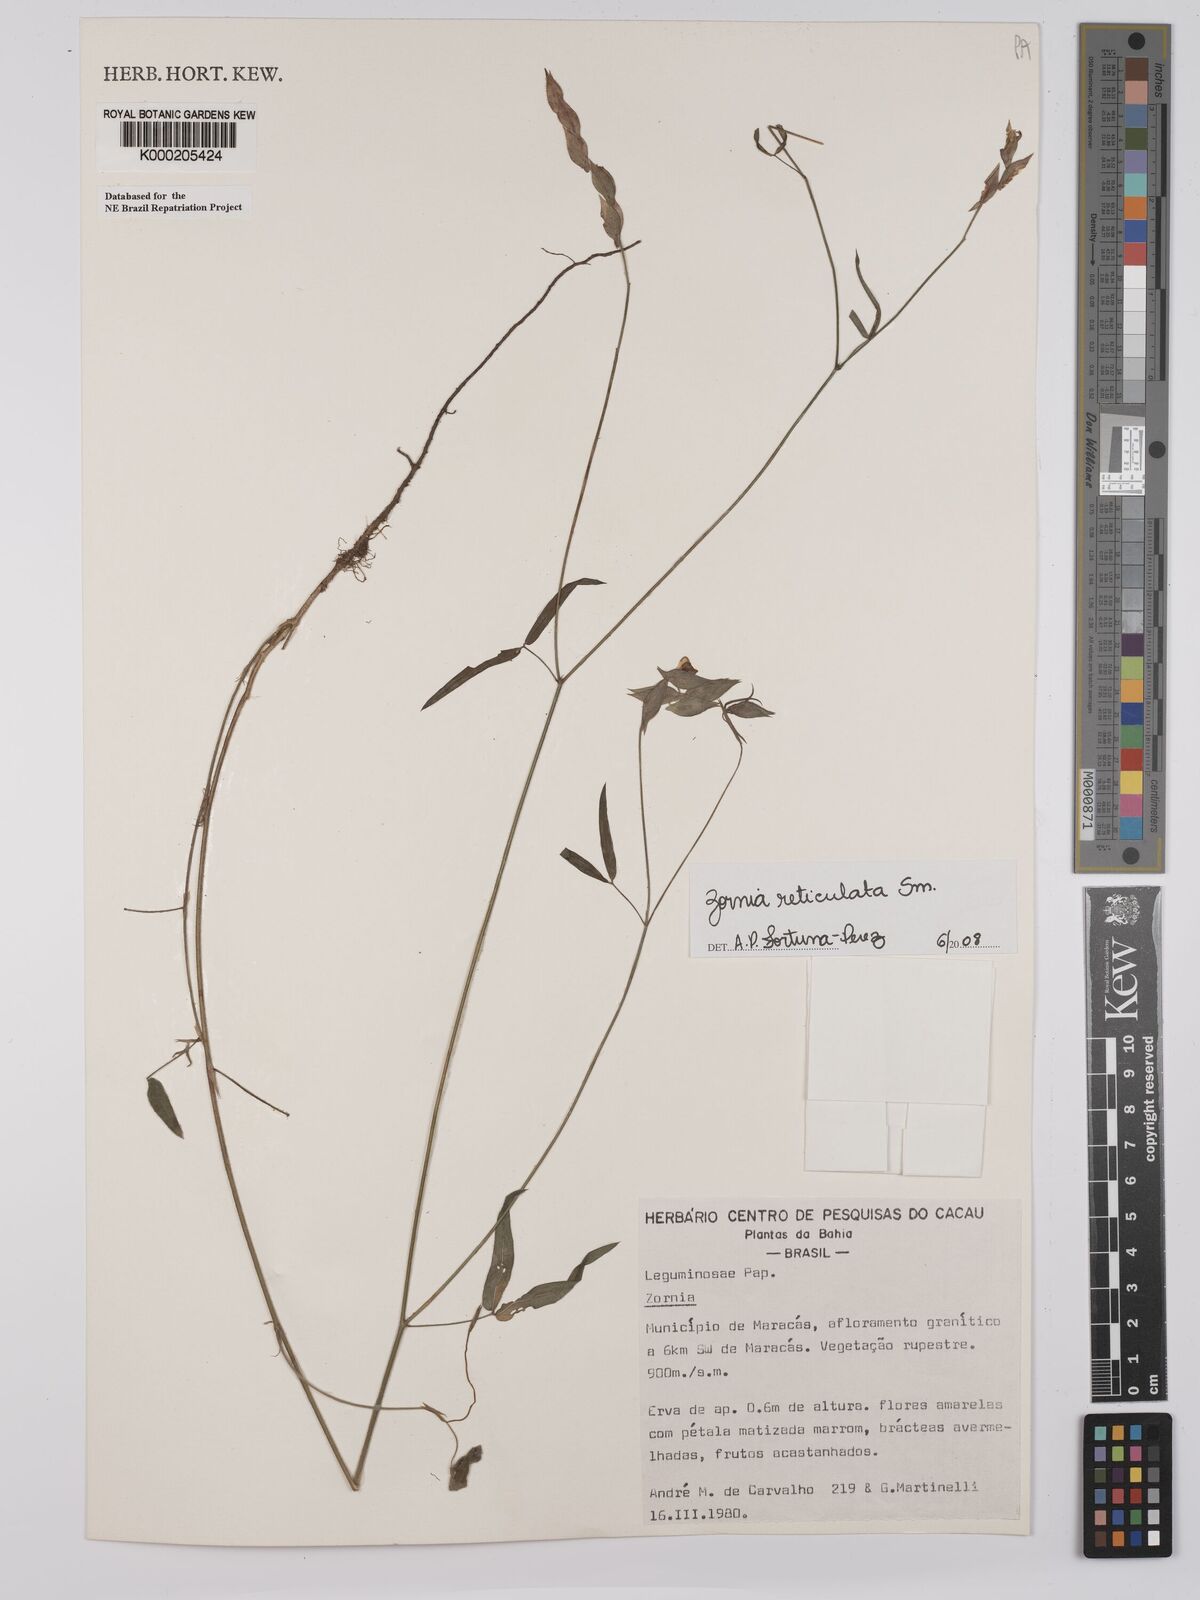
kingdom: Plantae
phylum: Tracheophyta
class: Magnoliopsida
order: Fabales
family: Fabaceae
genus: Zornia
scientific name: Zornia reticulata
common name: Reticulate viperina
